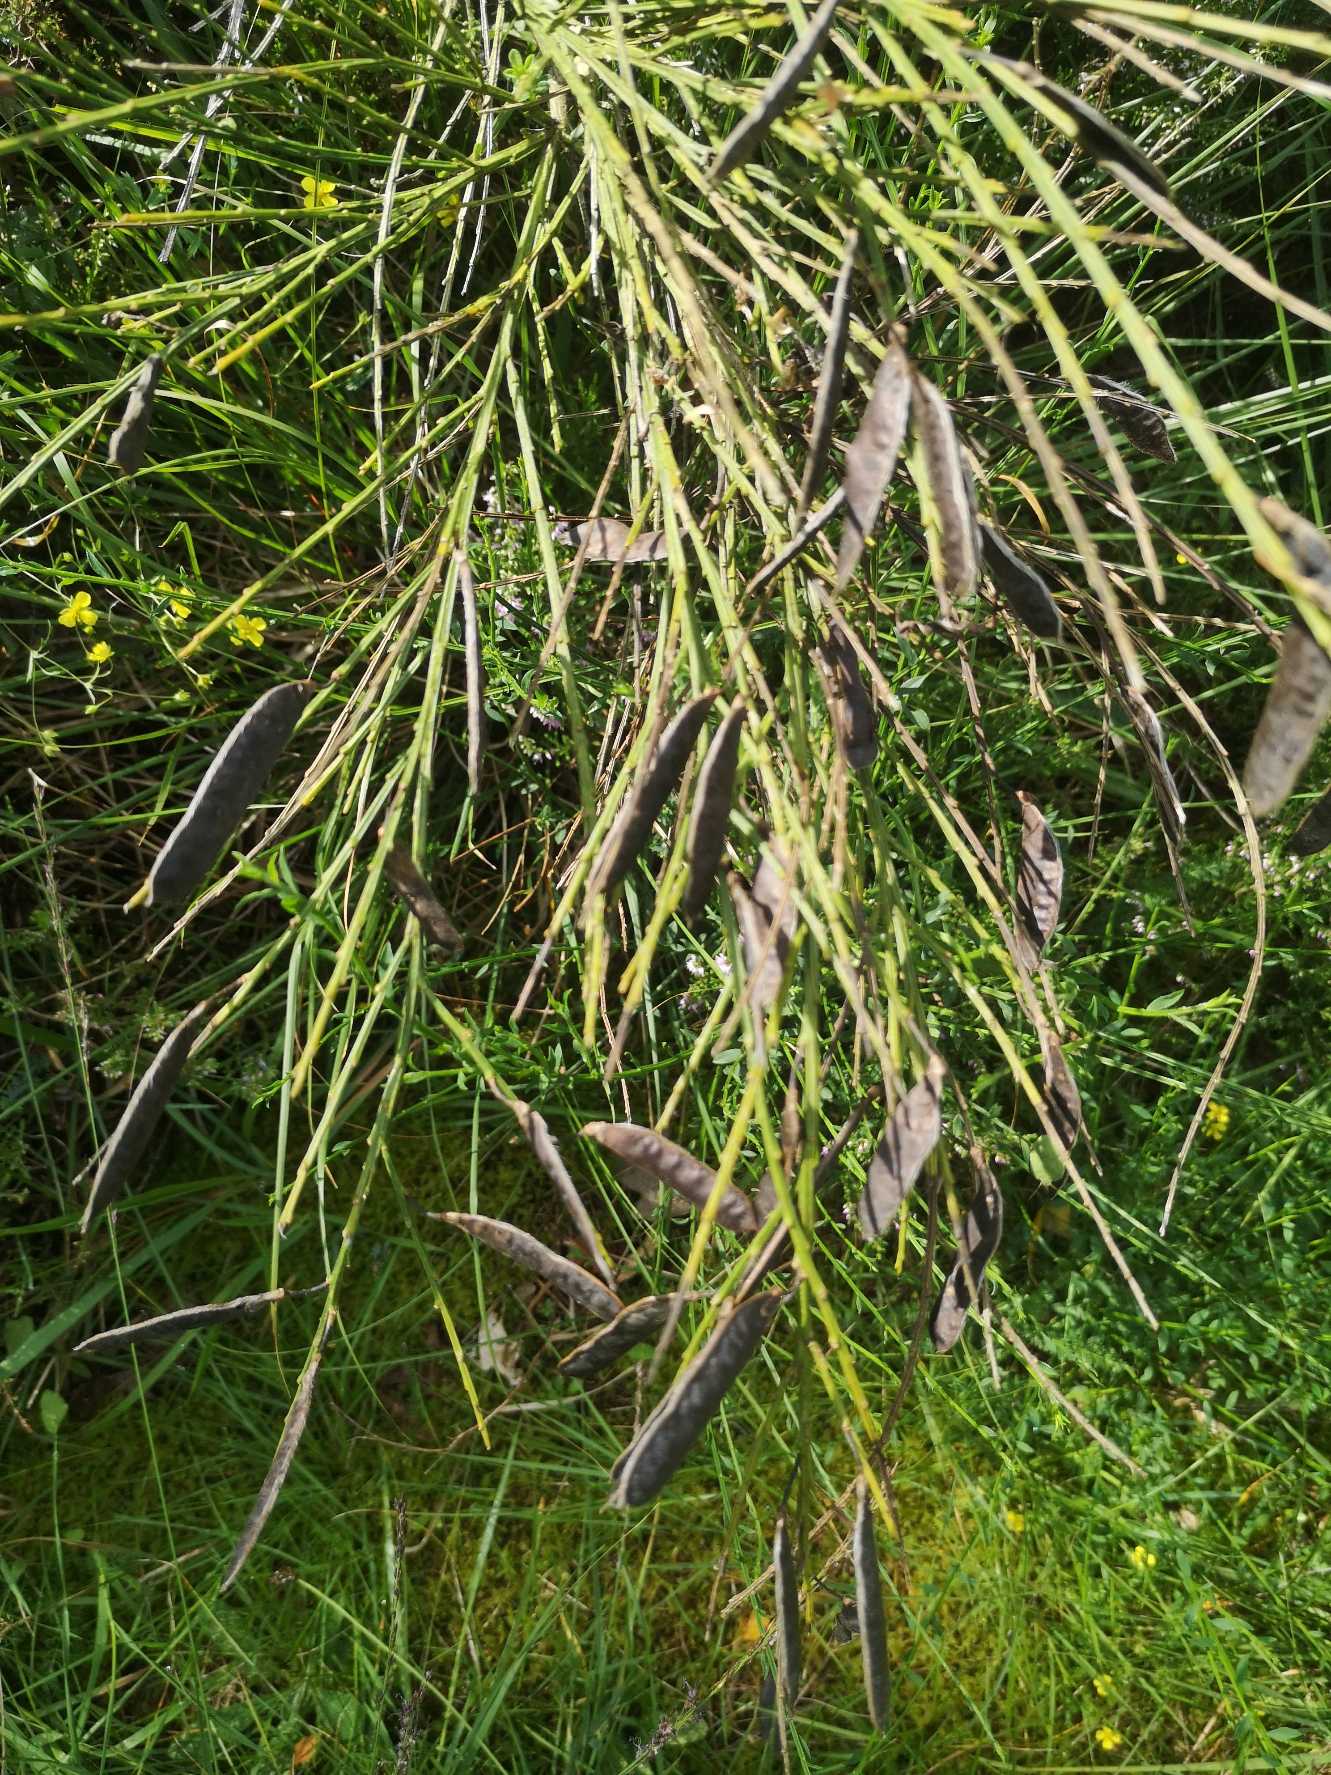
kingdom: Plantae
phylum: Tracheophyta
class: Magnoliopsida
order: Fabales
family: Fabaceae
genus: Cytisus
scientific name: Cytisus scoparius
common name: Almindelig gyvel
